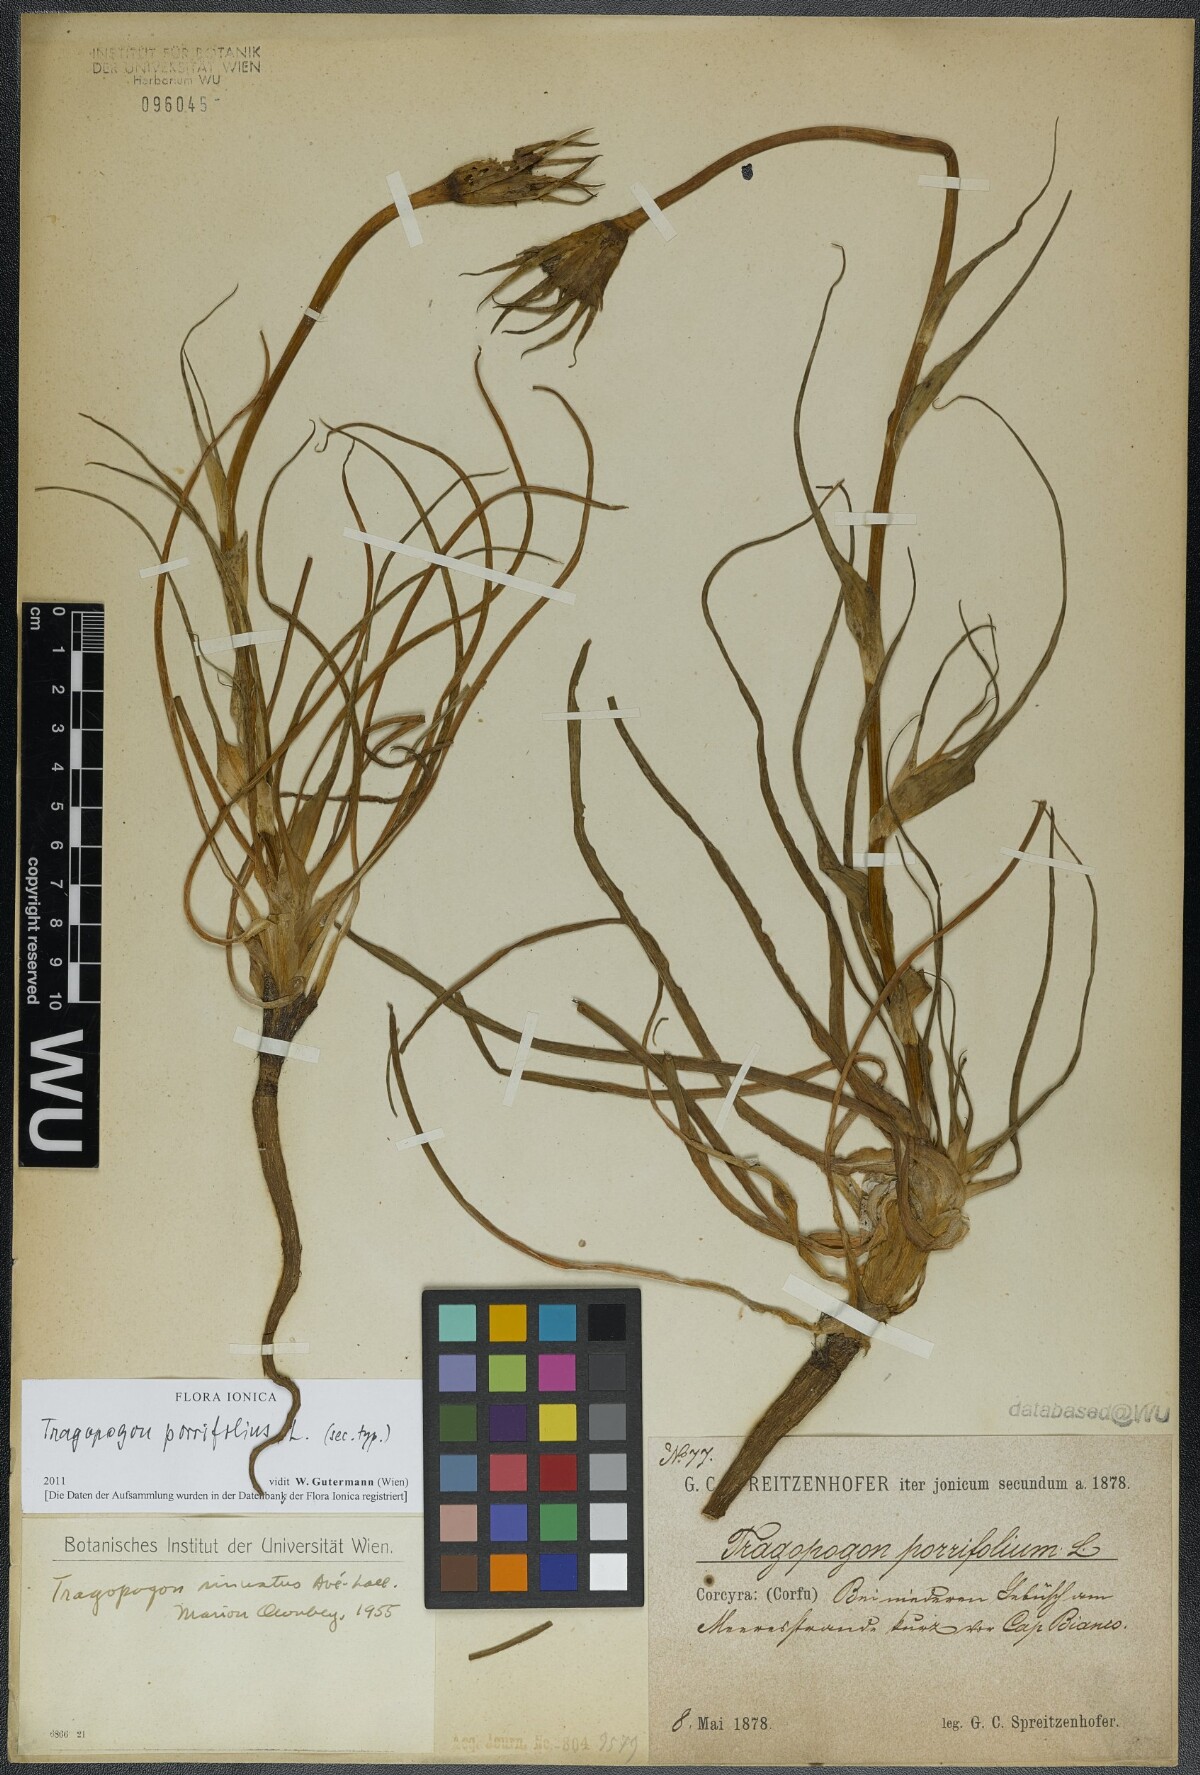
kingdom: Plantae
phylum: Tracheophyta
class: Magnoliopsida
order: Asterales
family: Asteraceae
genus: Tragopogon
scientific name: Tragopogon porrifolius
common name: Salsify
